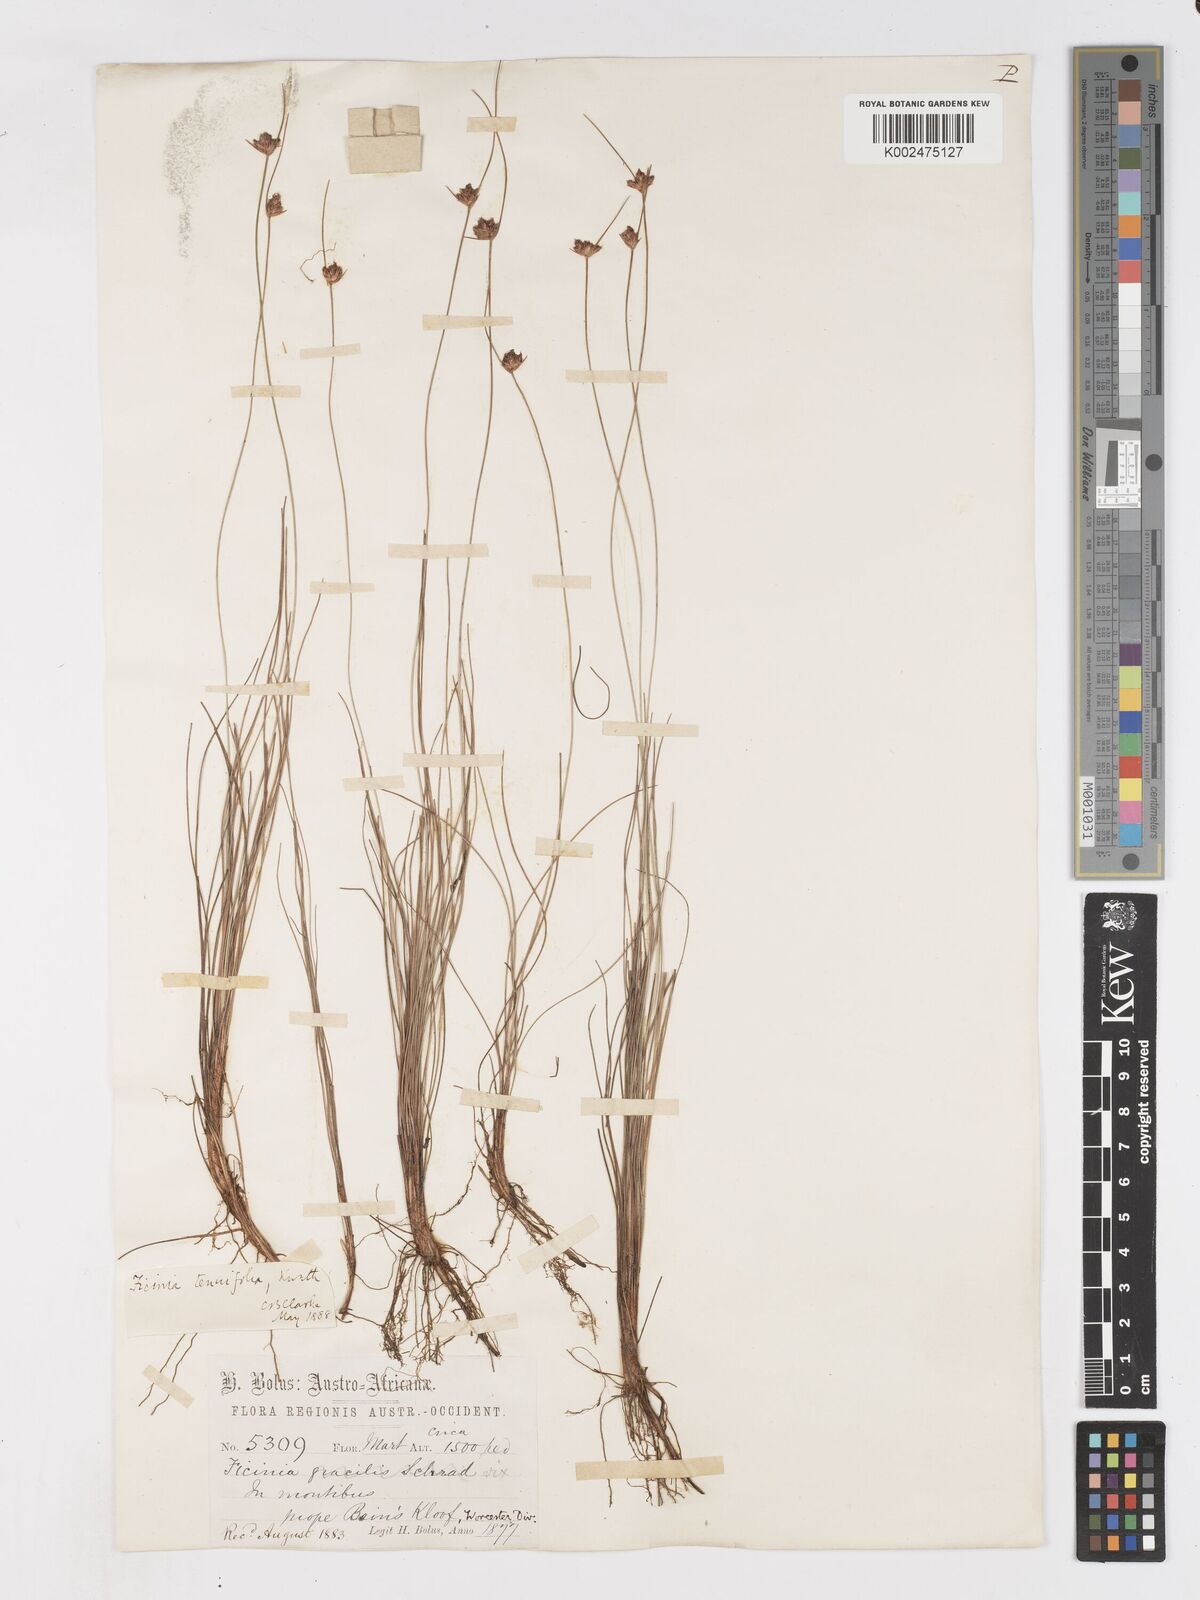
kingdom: Plantae
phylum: Tracheophyta
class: Liliopsida
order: Poales
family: Cyperaceae
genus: Ficinia
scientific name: Ficinia filiformis
